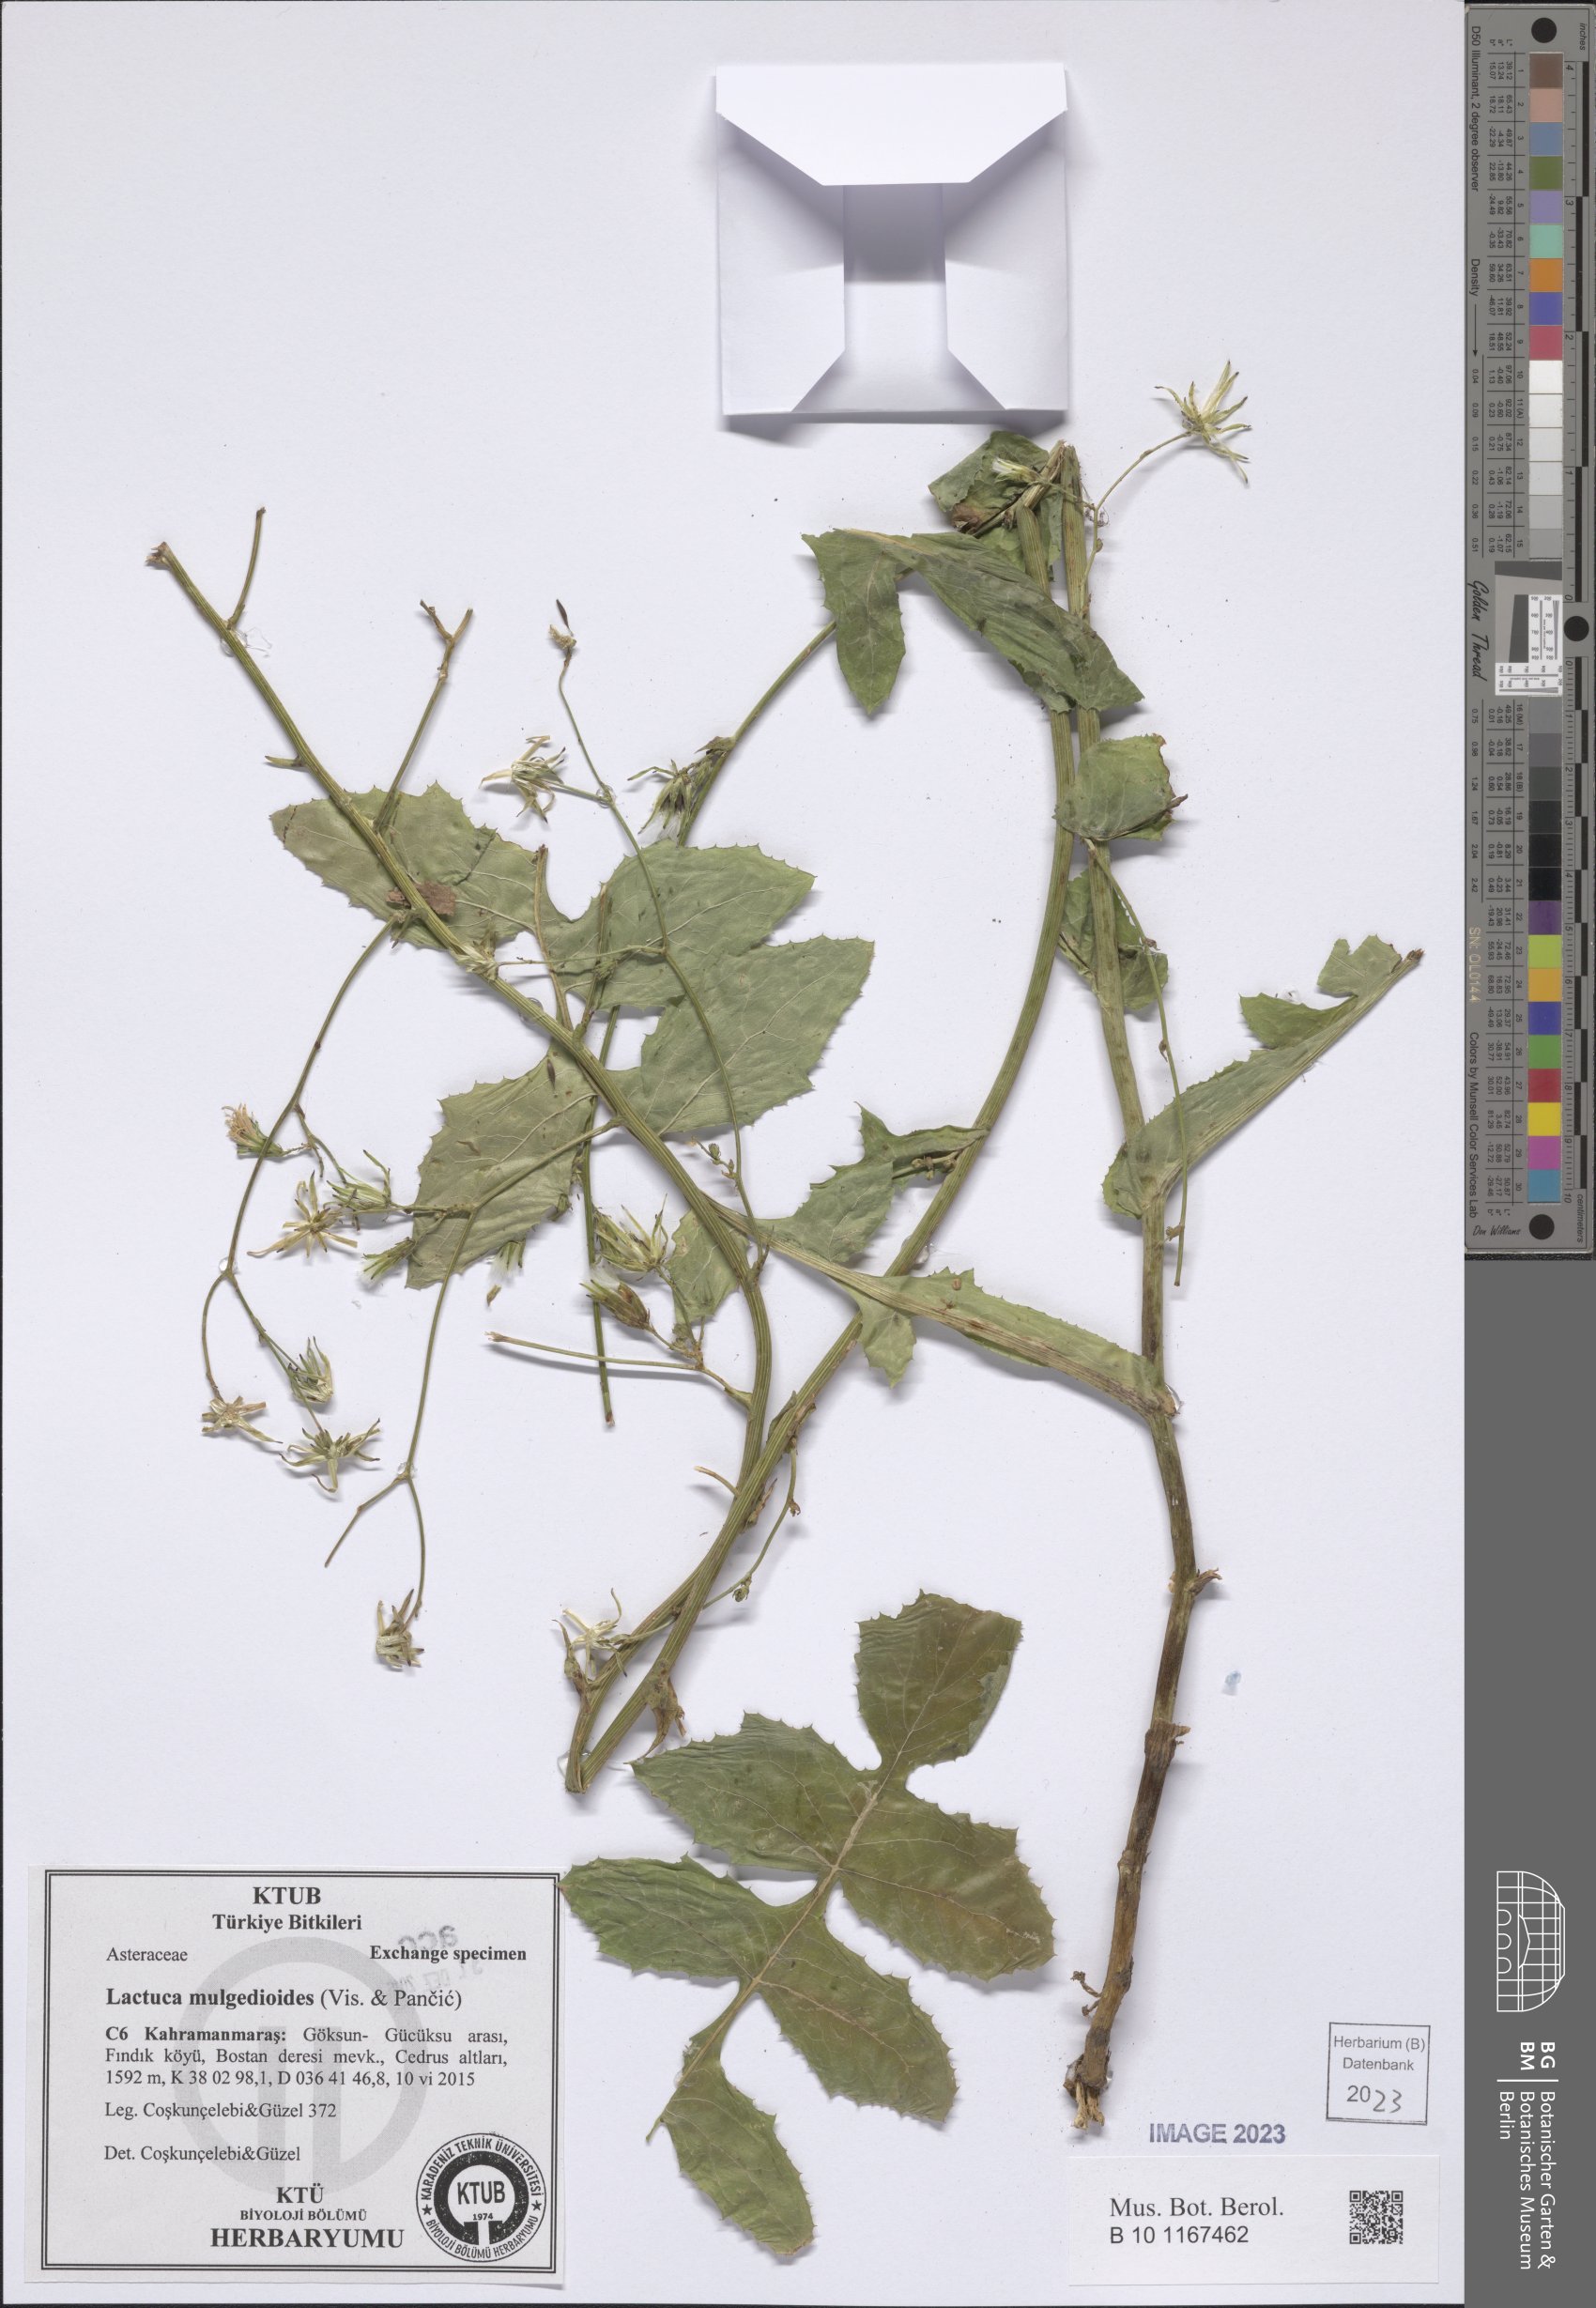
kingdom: Plantae
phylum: Tracheophyta
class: Magnoliopsida
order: Asterales
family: Asteraceae
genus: Lactuca
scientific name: Lactuca mulgedioides
